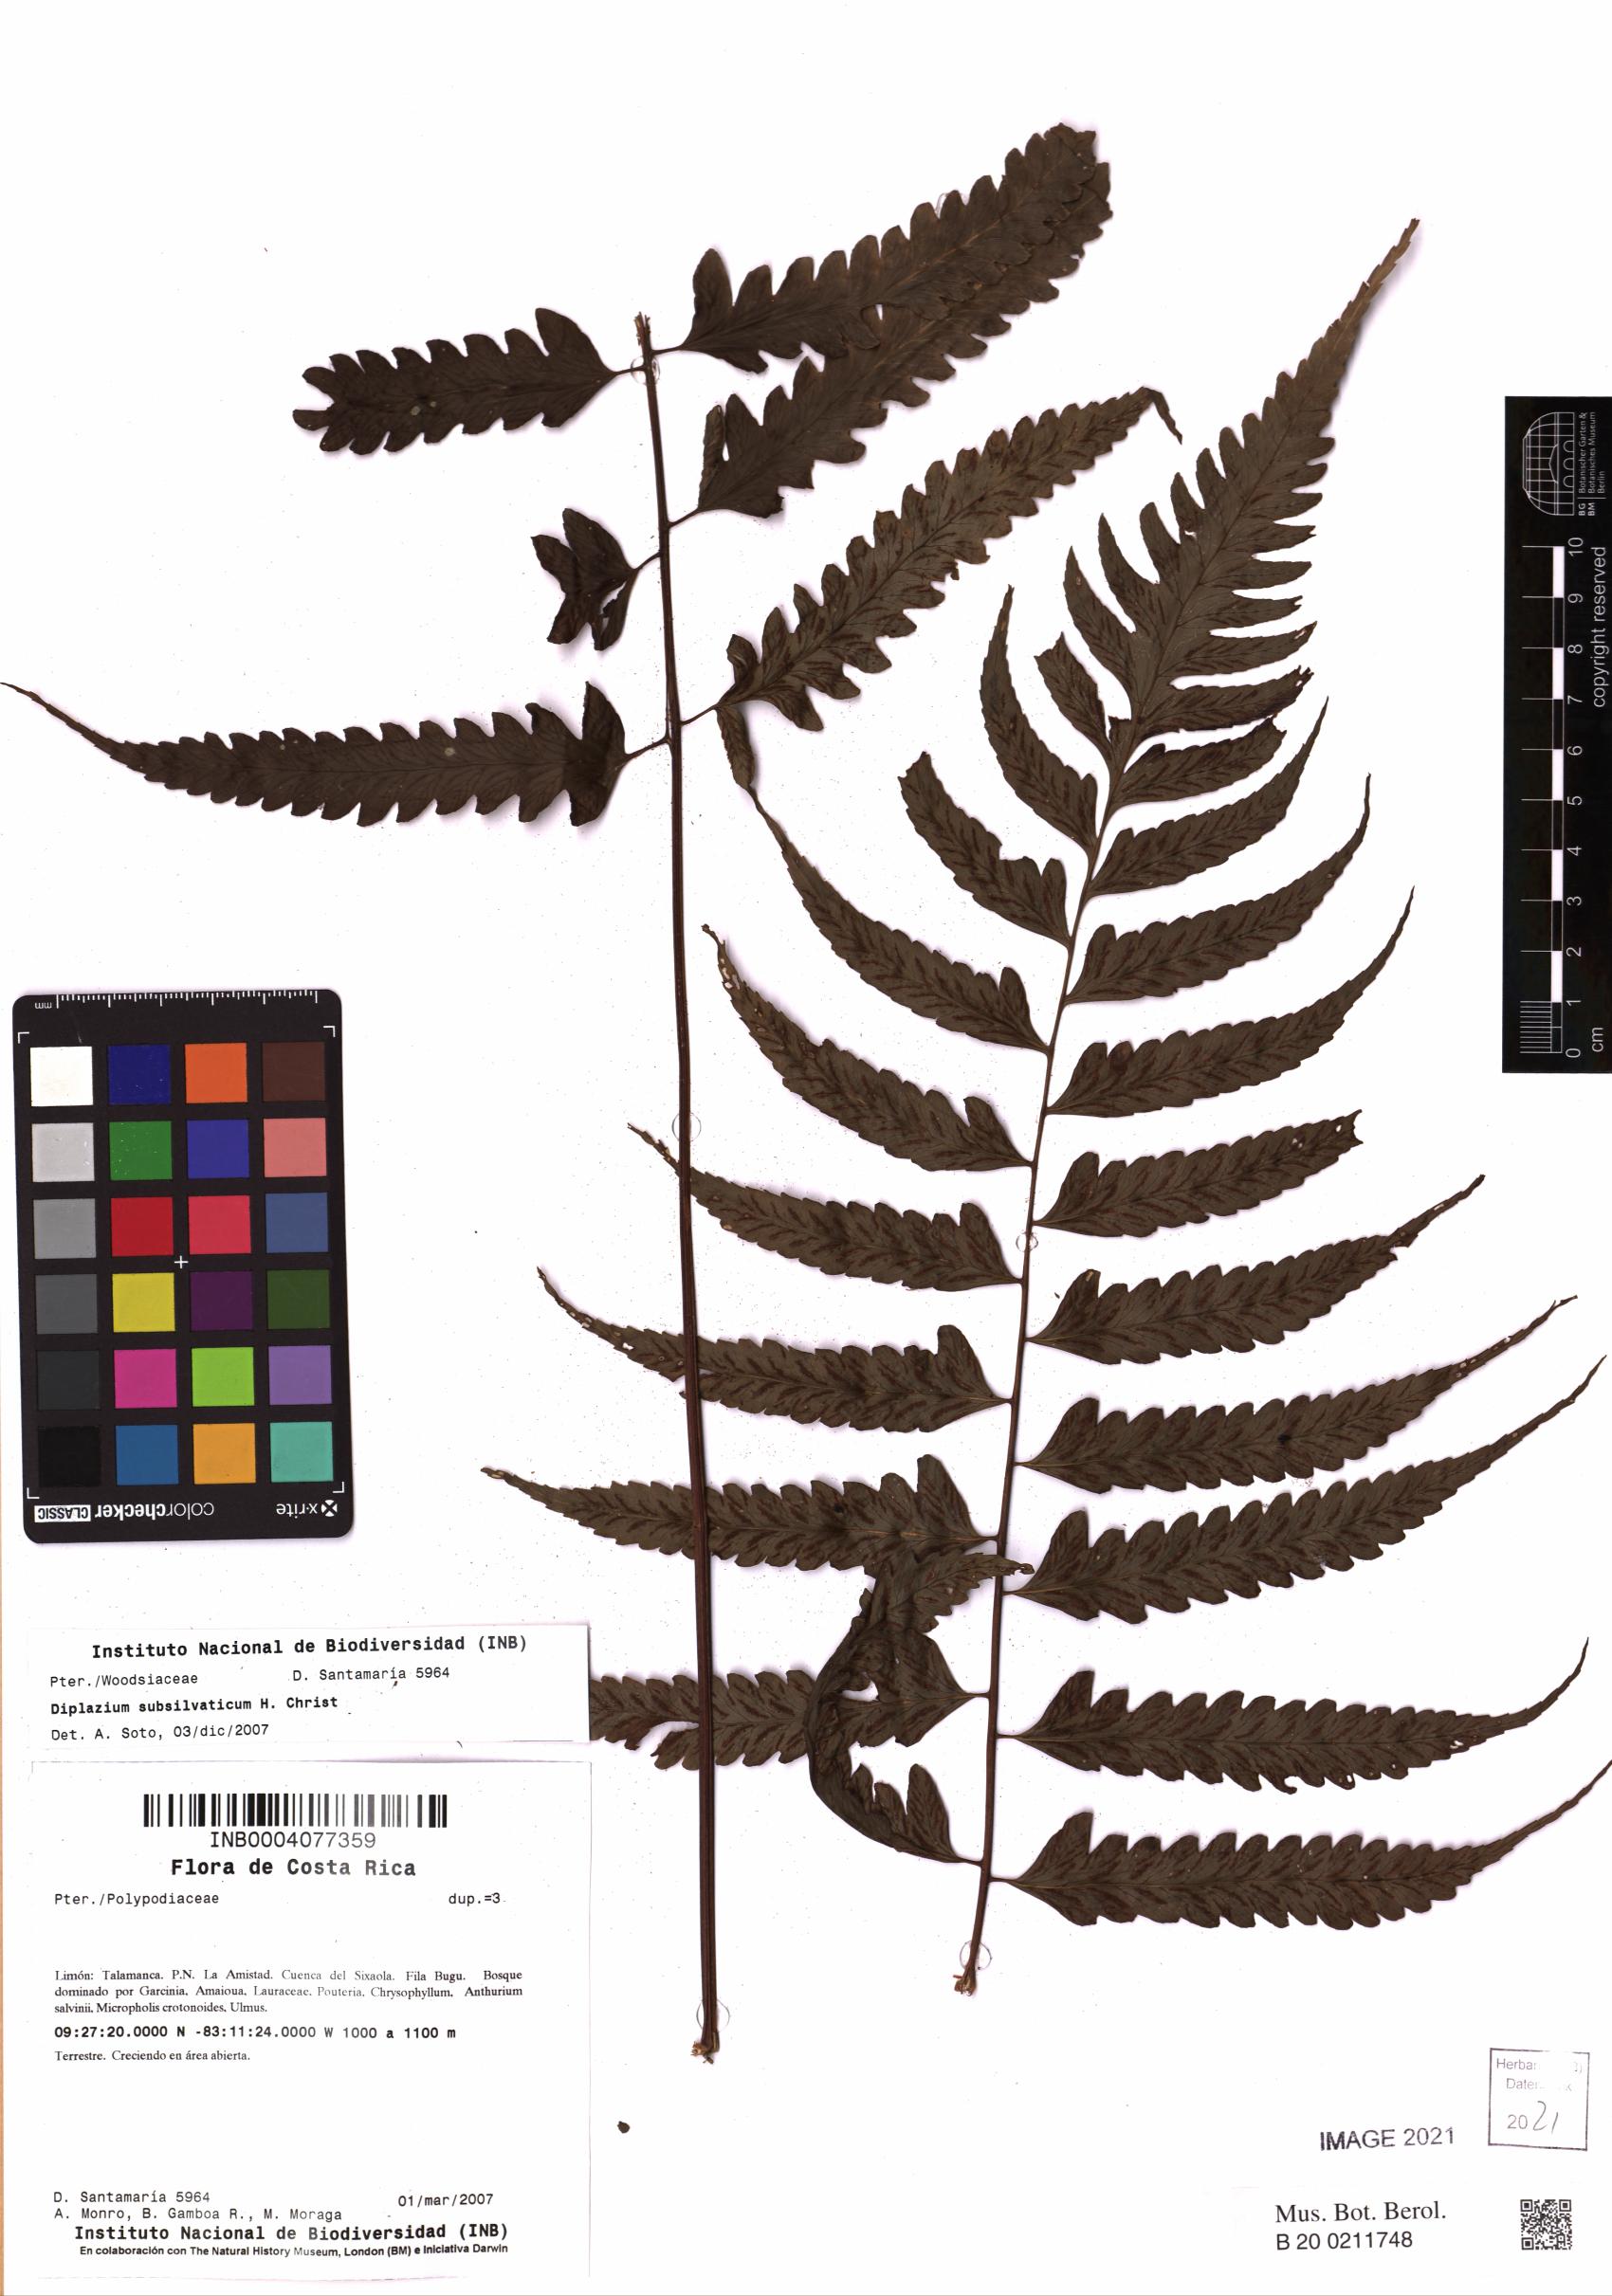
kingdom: Plantae
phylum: Tracheophyta
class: Polypodiopsida
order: Polypodiales
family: Athyriaceae
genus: Diplazium
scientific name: Diplazium subsilvaticum
